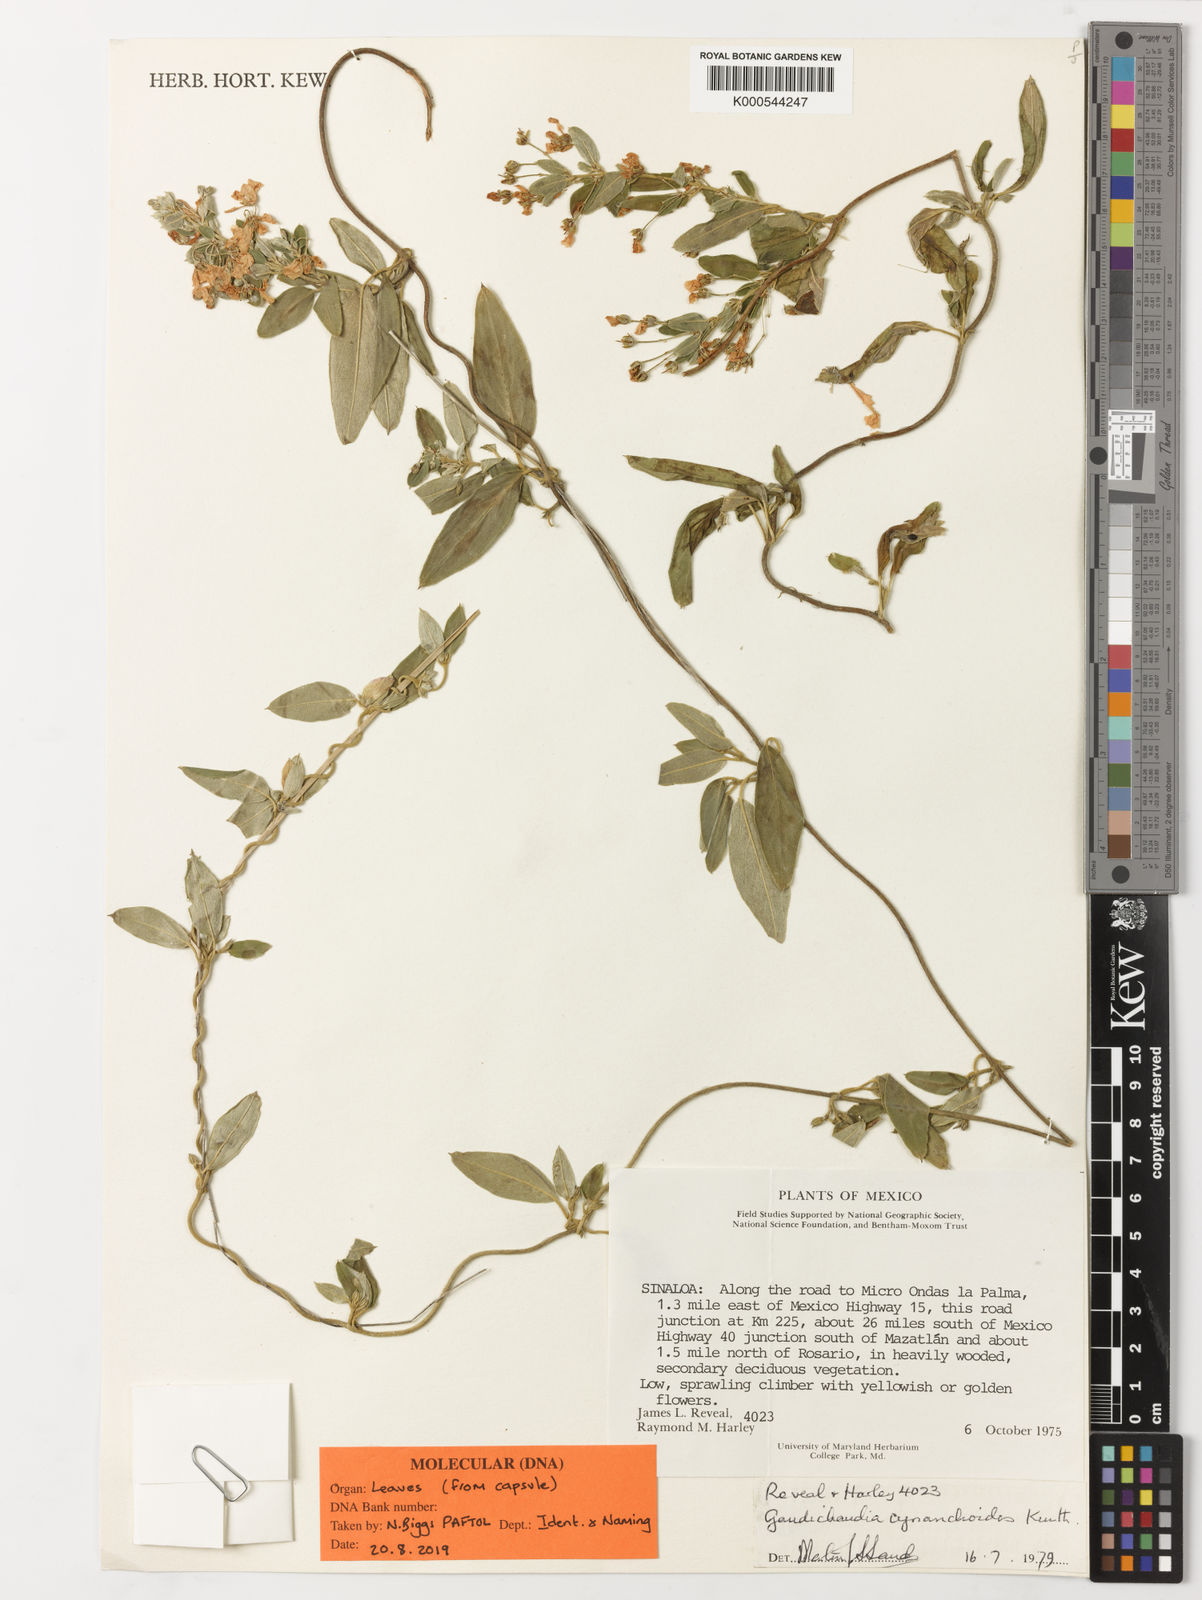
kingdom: Plantae
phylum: Tracheophyta
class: Magnoliopsida
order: Malpighiales
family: Malpighiaceae
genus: Gaudichaudia
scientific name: Gaudichaudia cynanchoides
